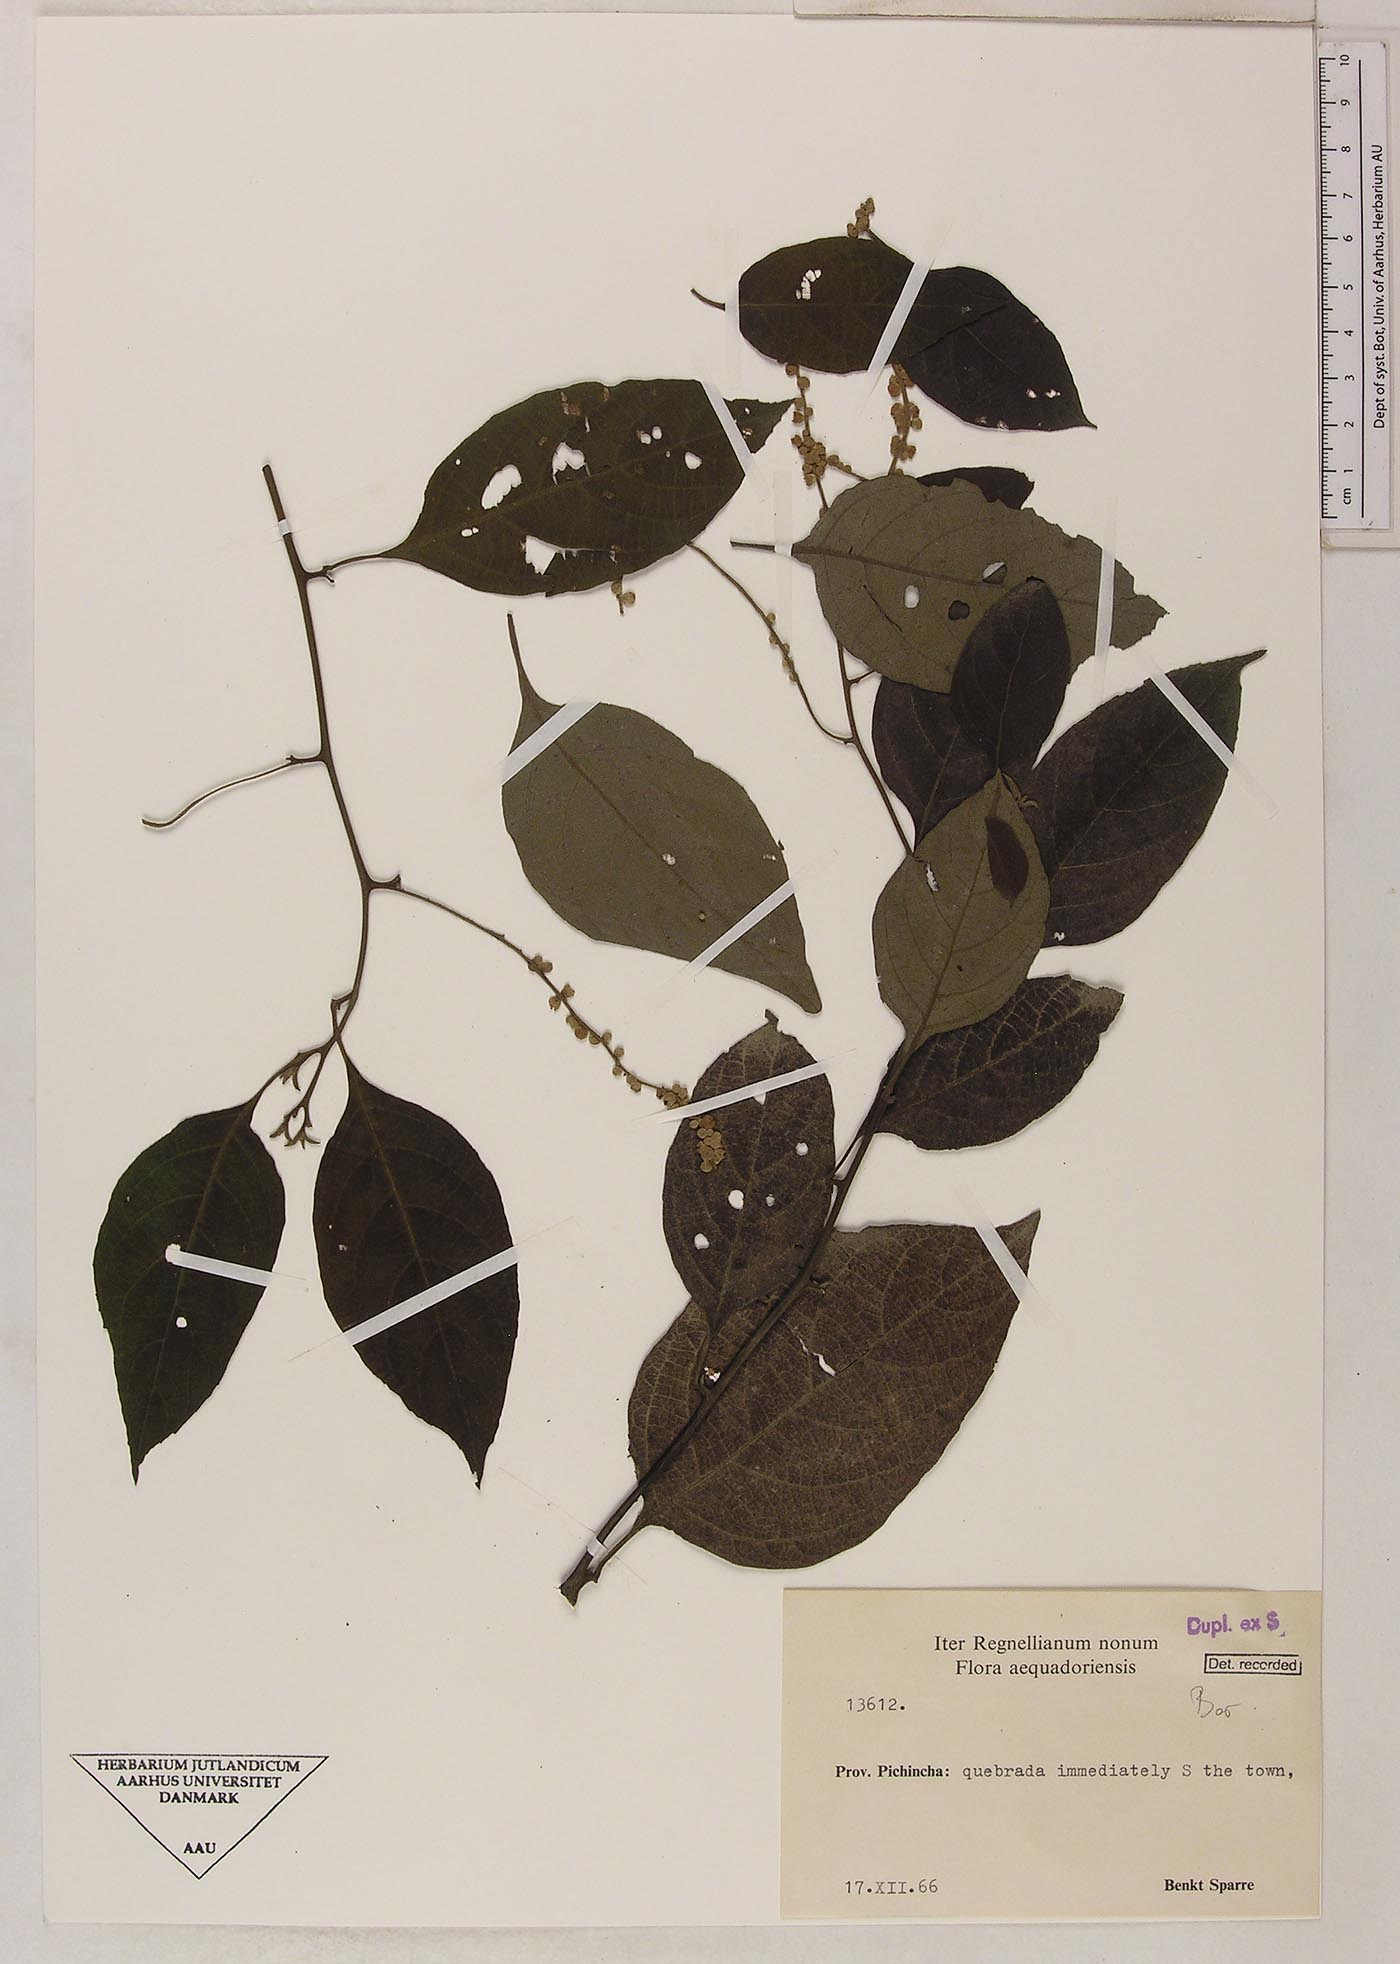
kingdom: Plantae
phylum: Tracheophyta
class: Magnoliopsida
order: Boraginales
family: Cordiaceae
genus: Varronia
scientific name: Varronia
